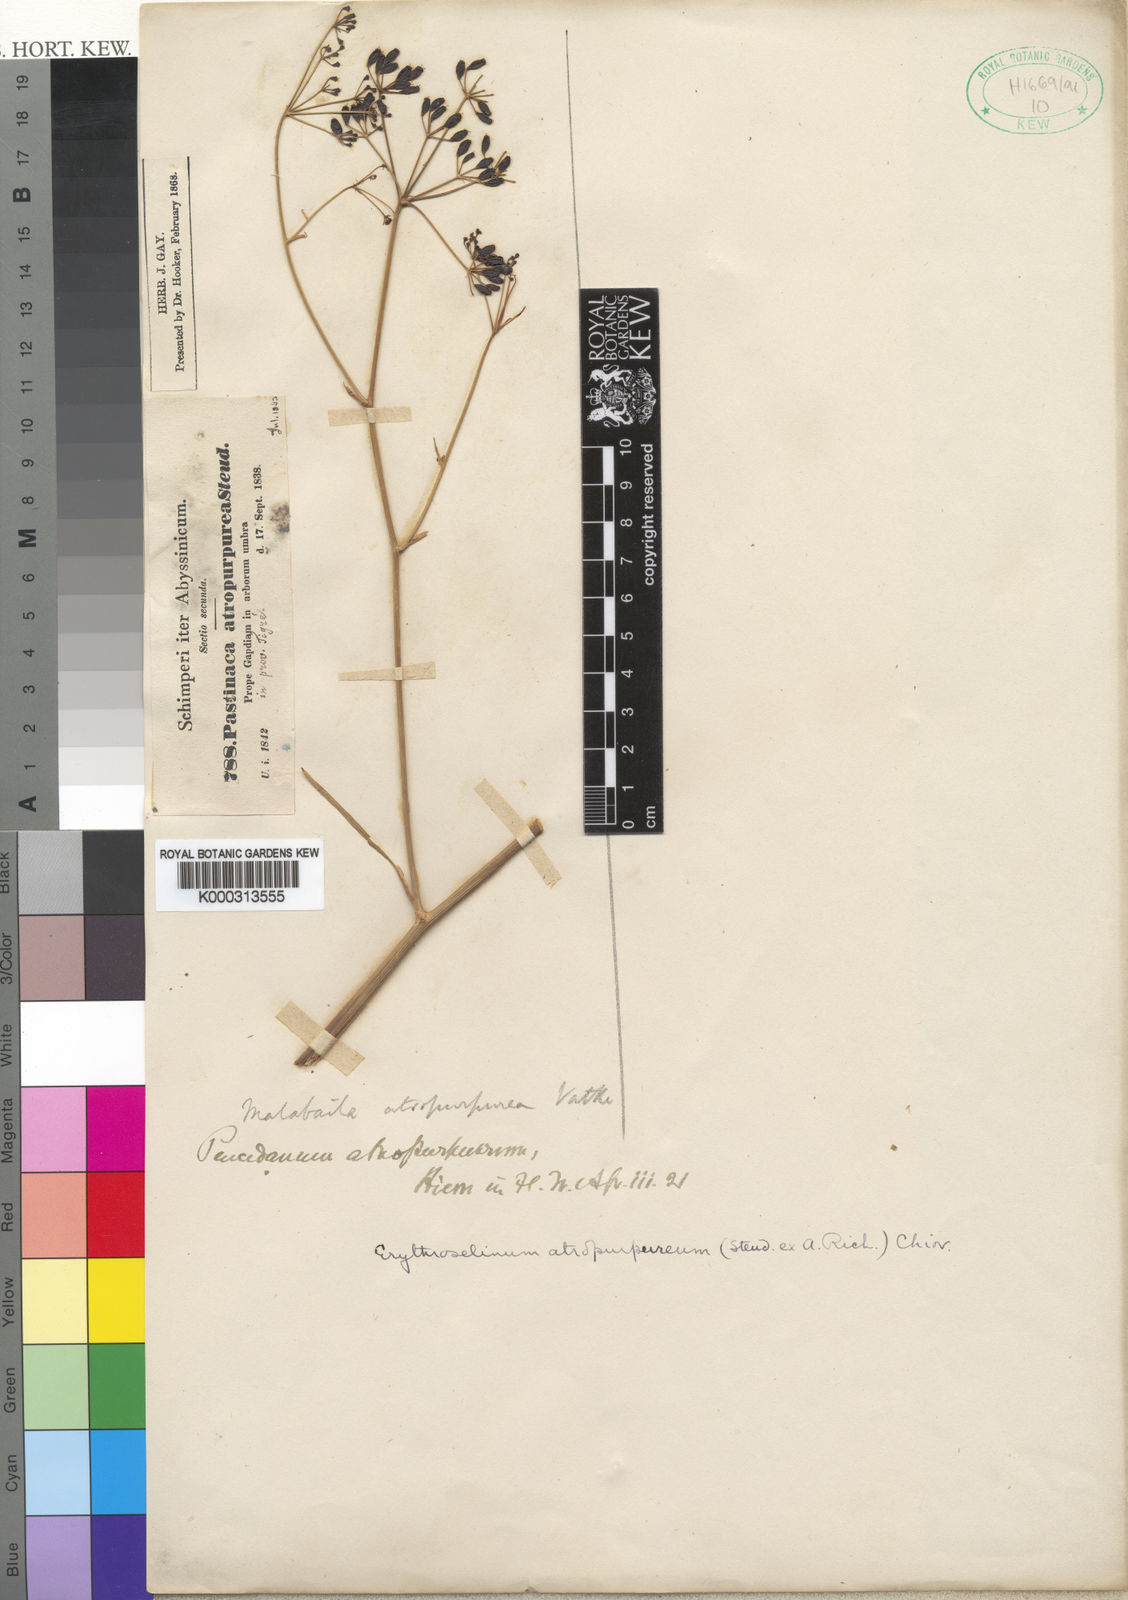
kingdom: Plantae
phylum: Tracheophyta
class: Magnoliopsida
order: Apiales
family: Apiaceae
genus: Lefebvrea
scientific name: Lefebvrea atropurpurea
